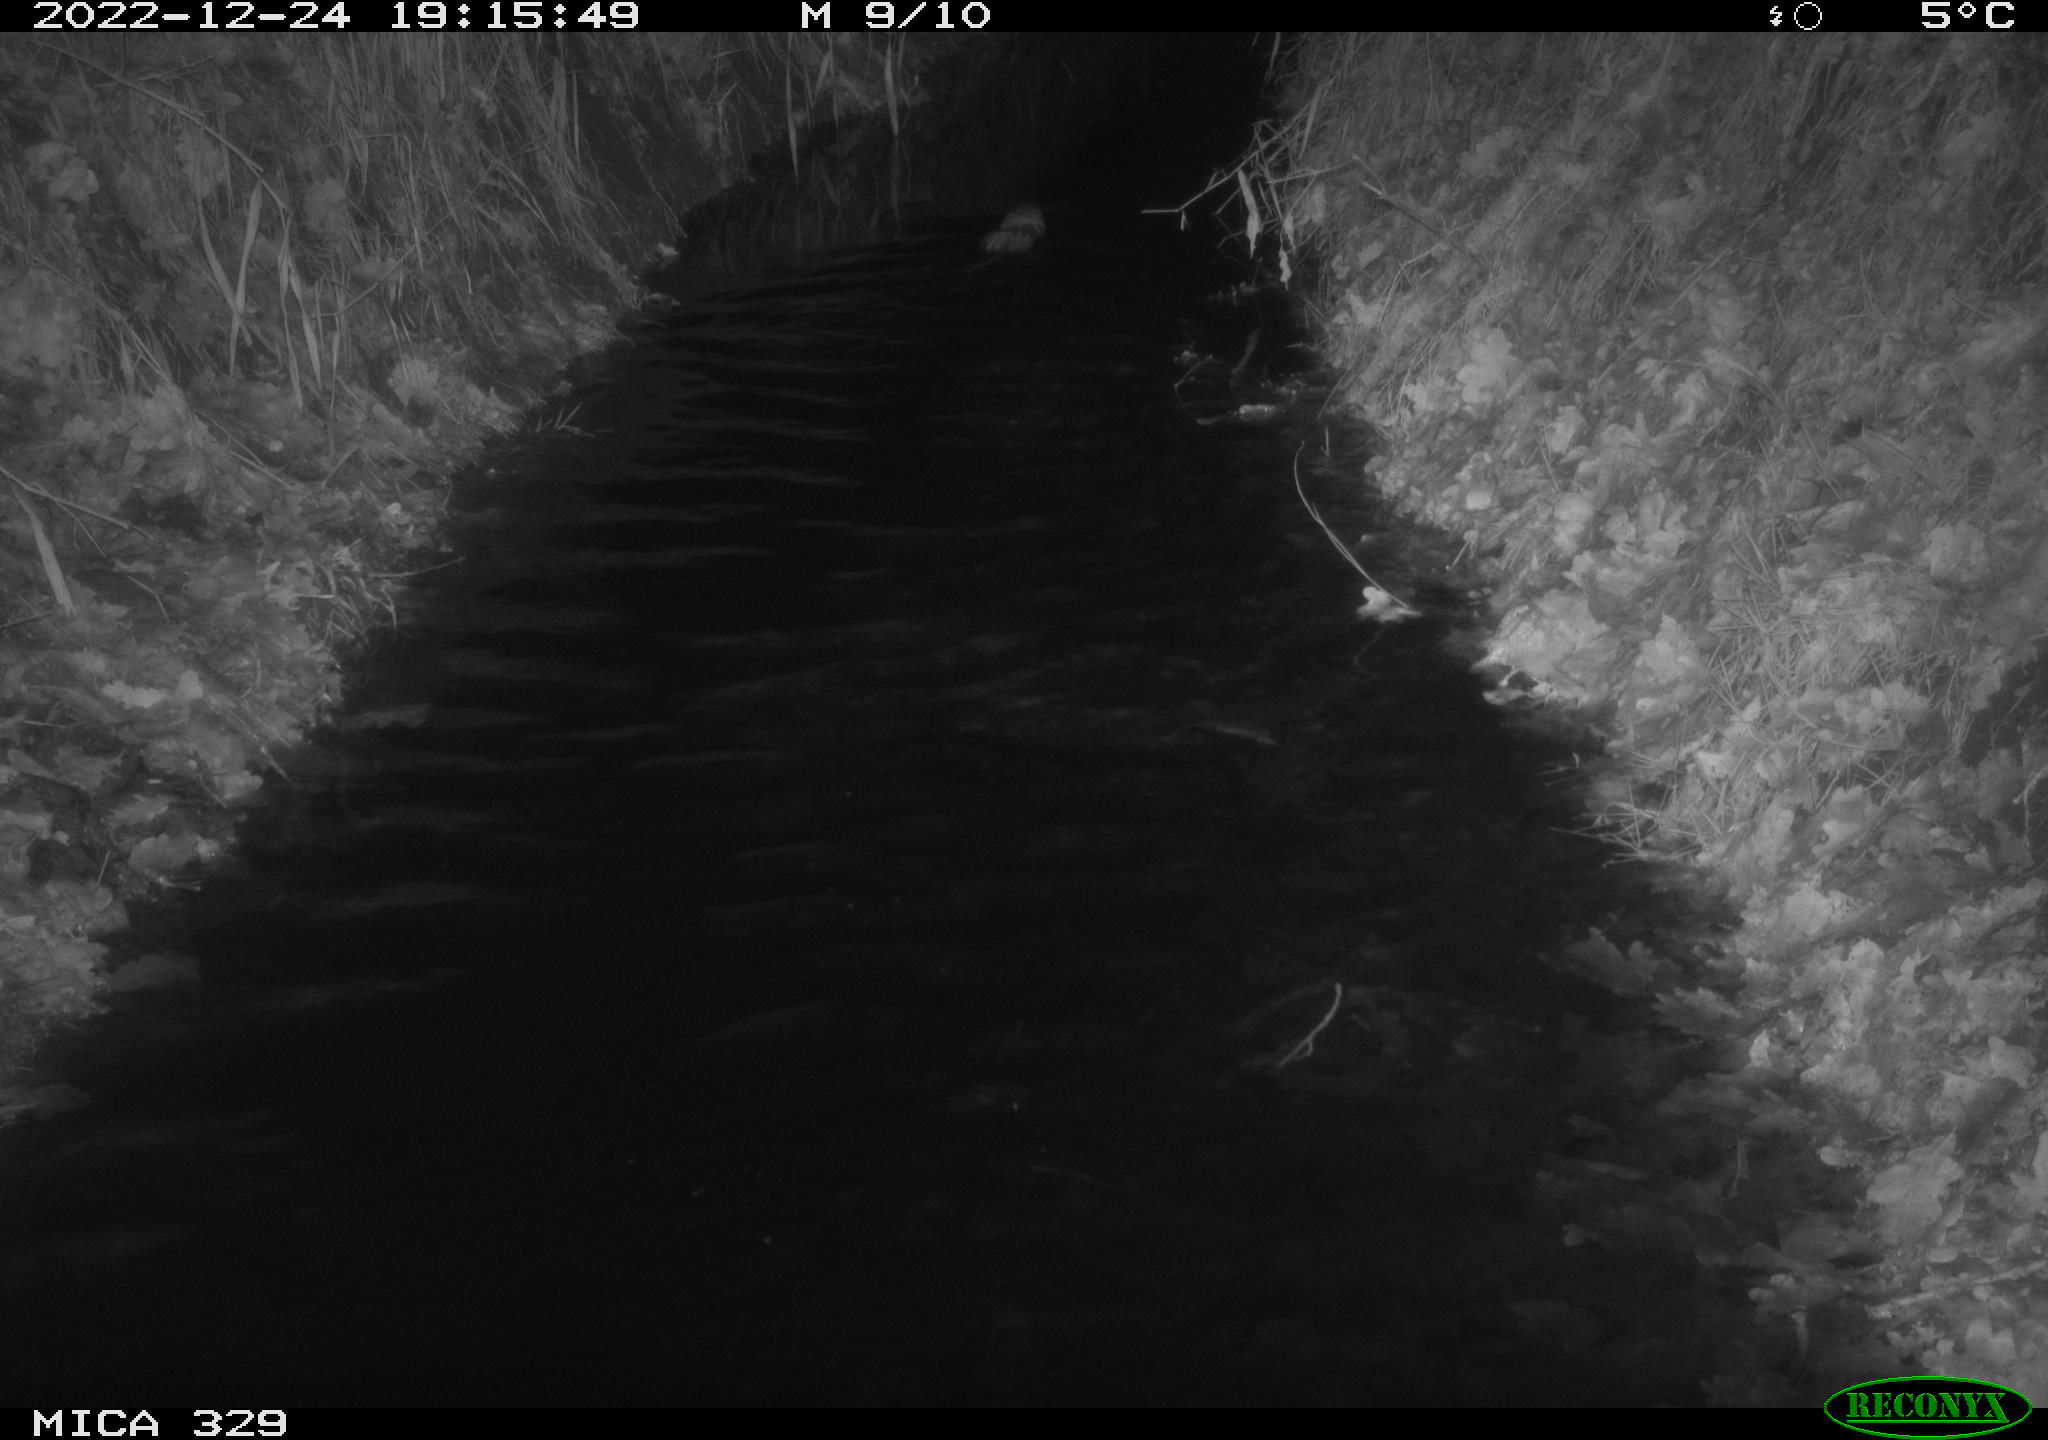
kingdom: Animalia
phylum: Chordata
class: Mammalia
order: Rodentia
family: Cricetidae
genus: Ondatra
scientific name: Ondatra zibethicus
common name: Muskrat
